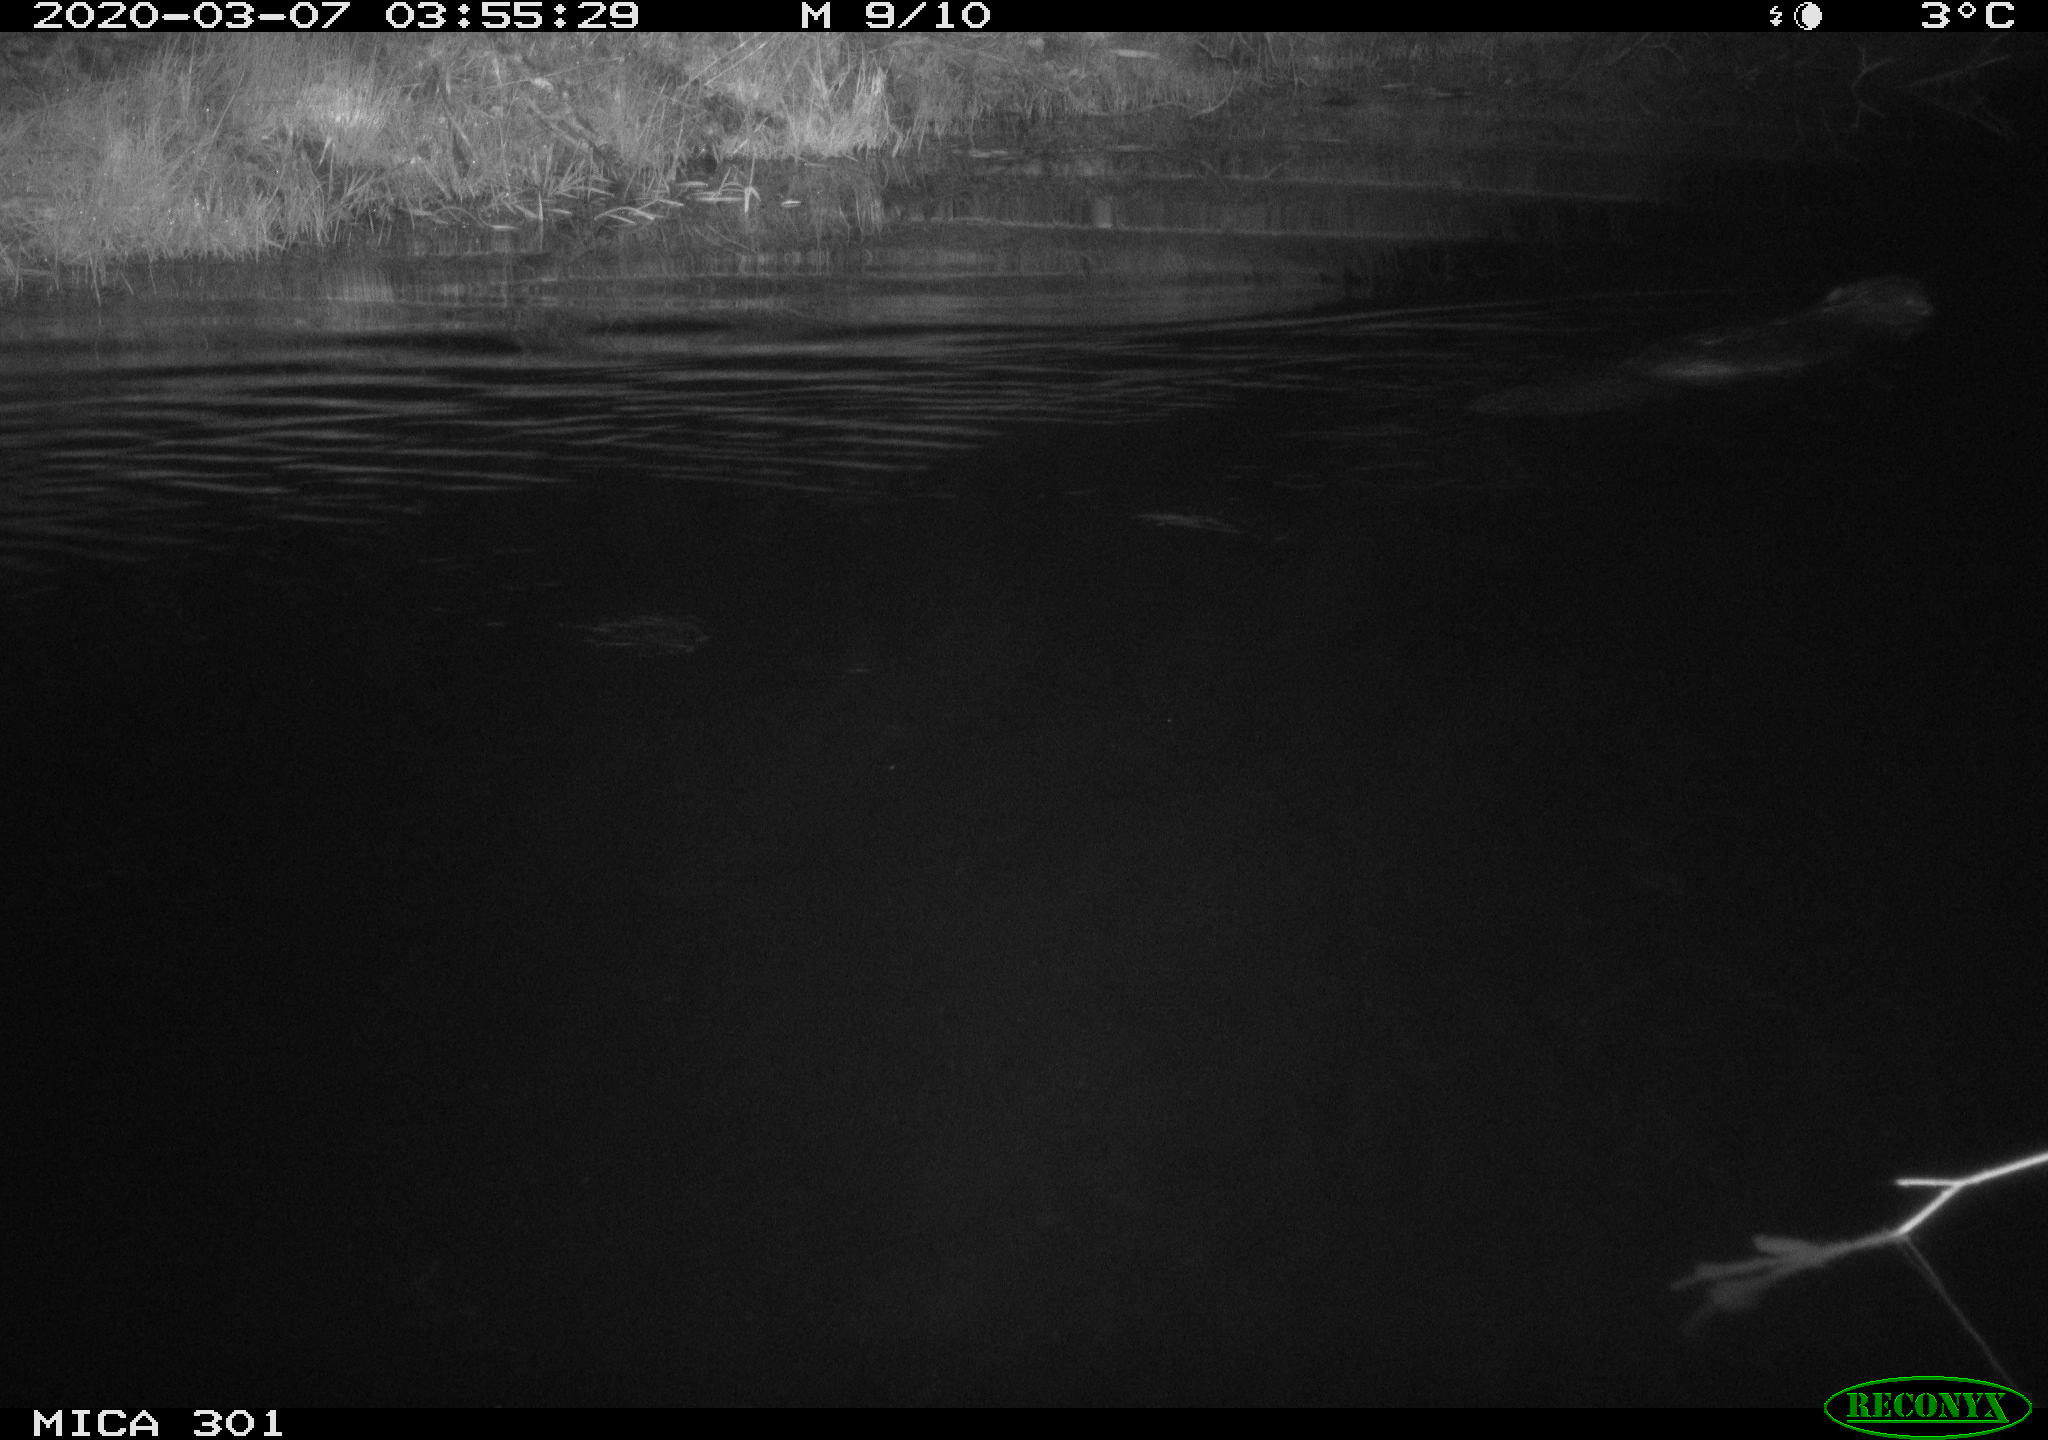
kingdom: Animalia
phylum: Chordata
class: Mammalia
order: Rodentia
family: Castoridae
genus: Castor
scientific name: Castor fiber
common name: Eurasian beaver
